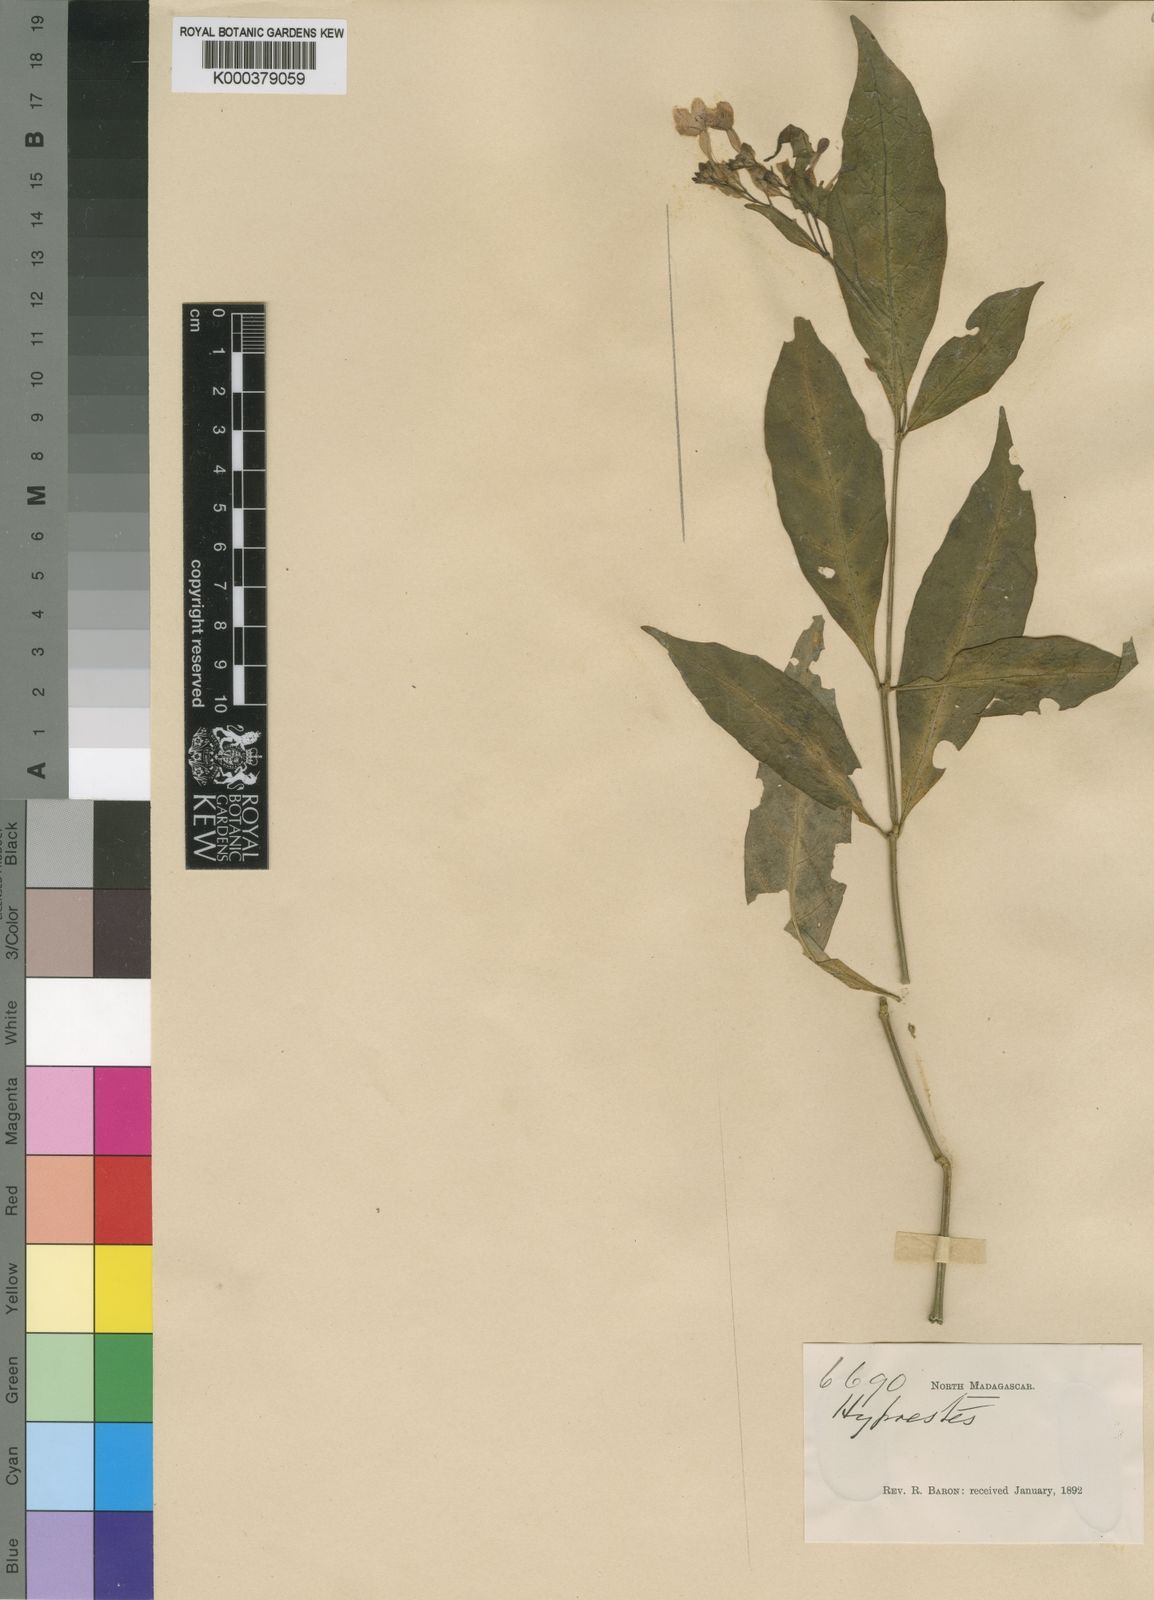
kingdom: Plantae
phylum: Tracheophyta
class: Magnoliopsida
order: Lamiales
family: Acanthaceae
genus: Hypoestes
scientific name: Hypoestes complanata
